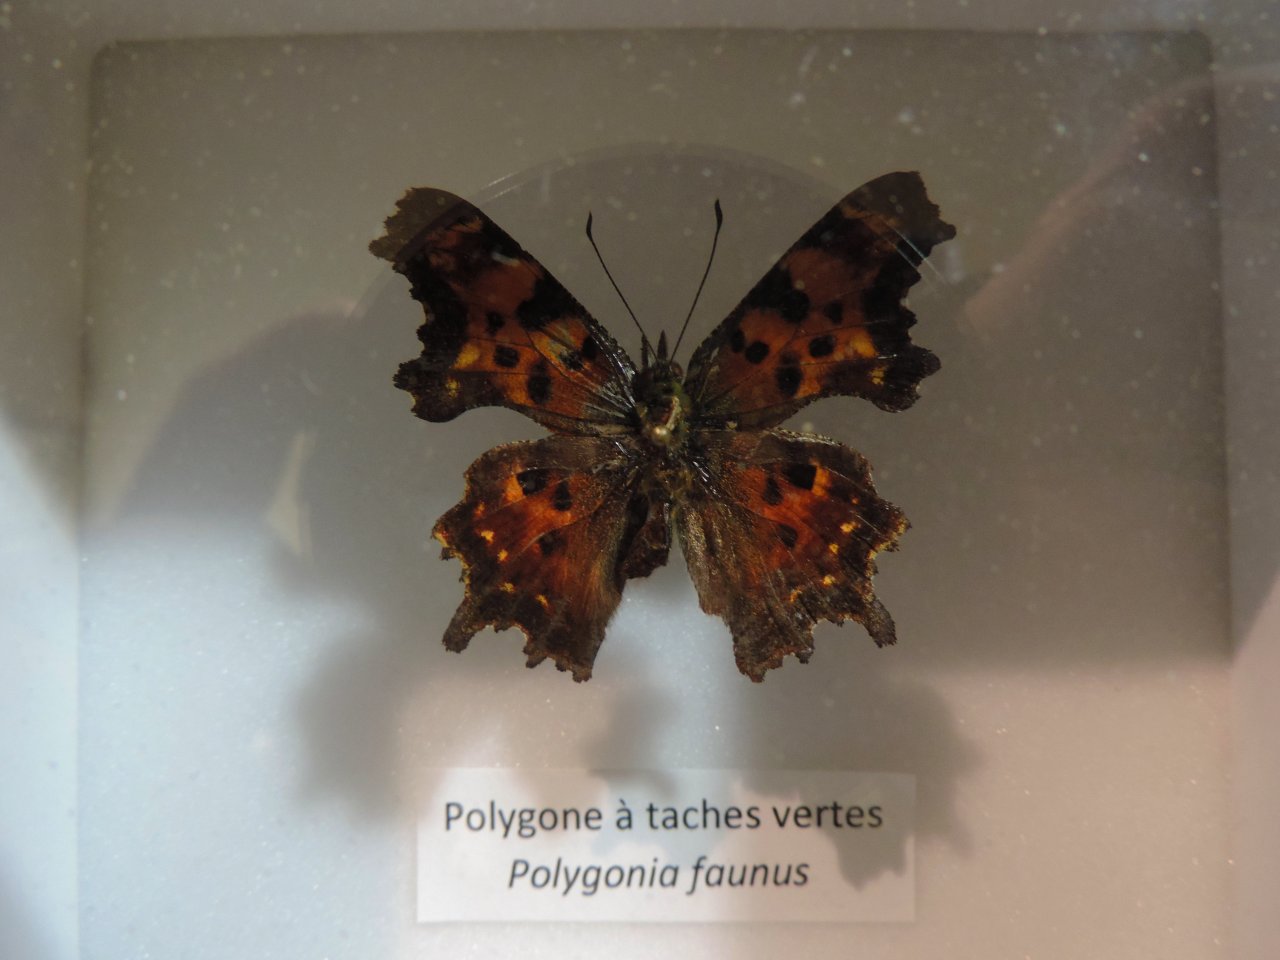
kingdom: Animalia
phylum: Arthropoda
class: Insecta
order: Lepidoptera
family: Nymphalidae
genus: Polygonia
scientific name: Polygonia faunus
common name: Green Comma
